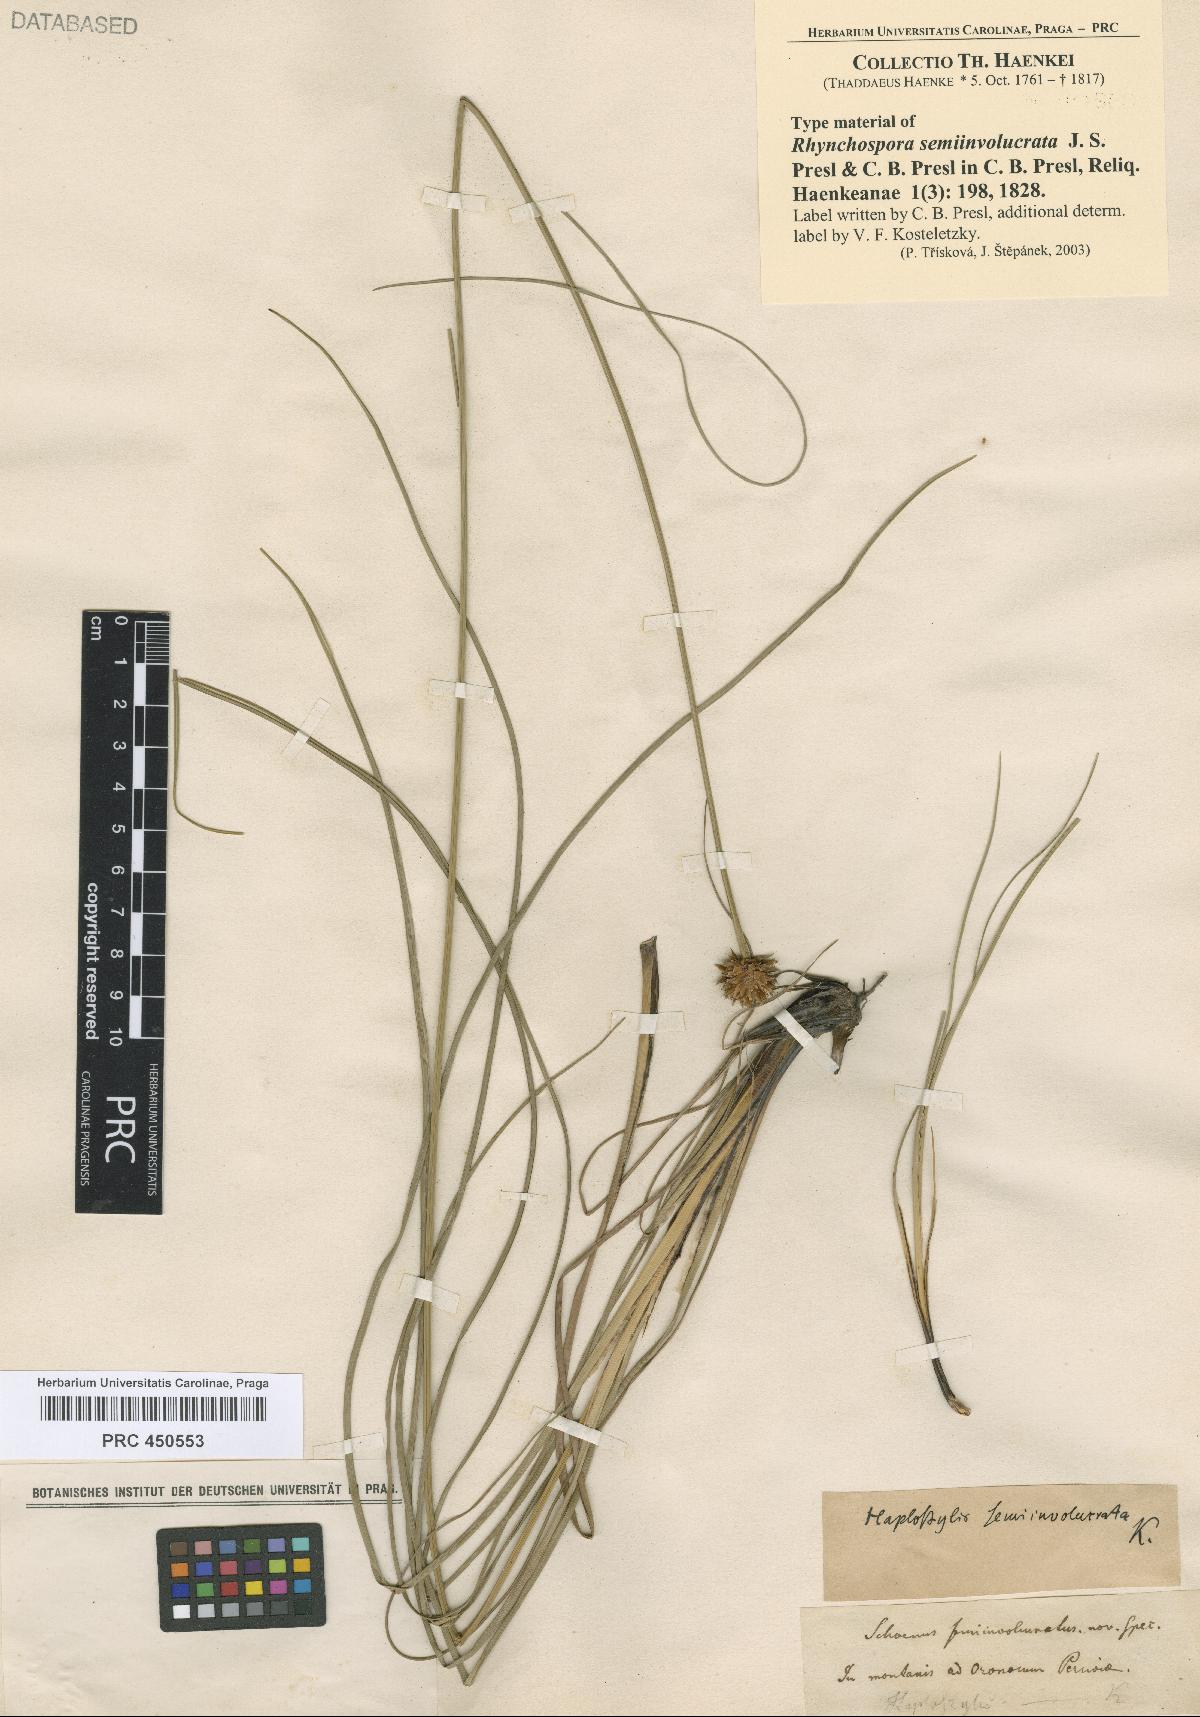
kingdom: Plantae
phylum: Tracheophyta
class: Liliopsida
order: Poales
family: Cyperaceae
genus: Rhynchospora
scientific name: Rhynchospora
